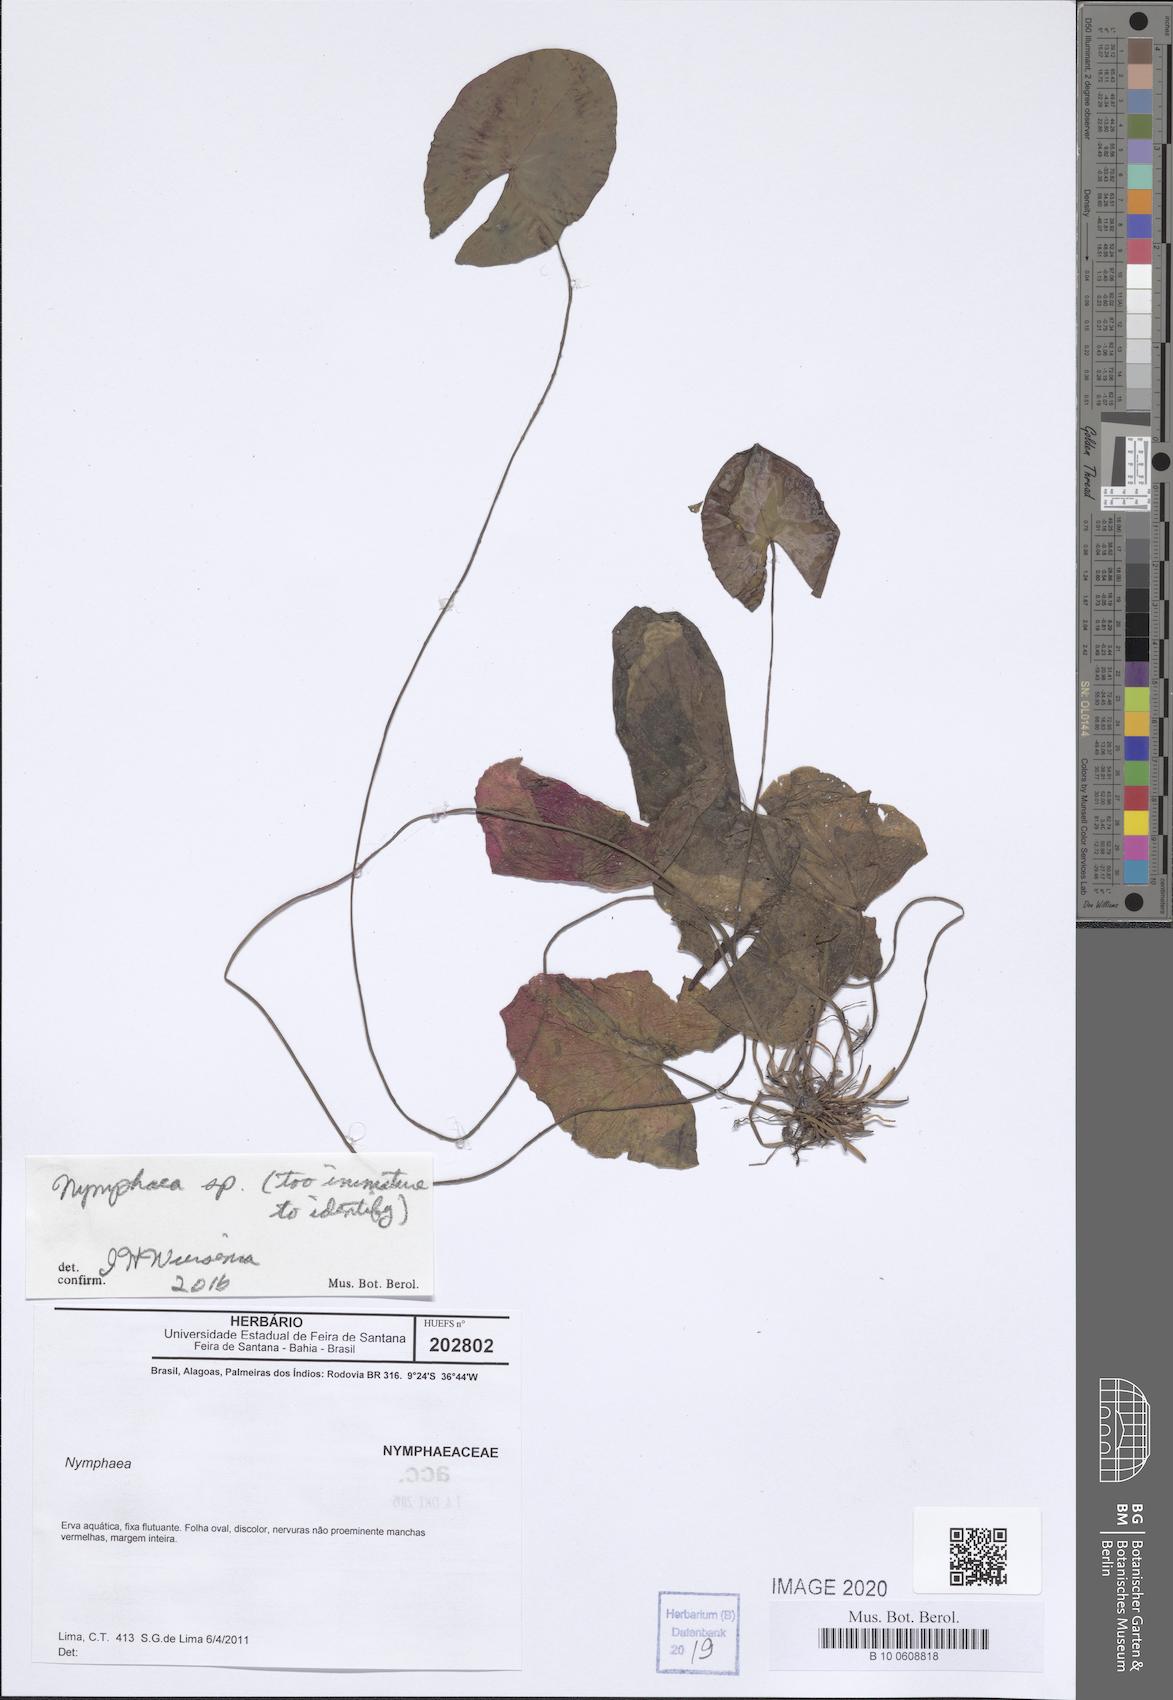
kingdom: Plantae
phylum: Tracheophyta
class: Magnoliopsida
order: Nymphaeales
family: Nymphaeaceae
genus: Nymphaea
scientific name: Nymphaea
